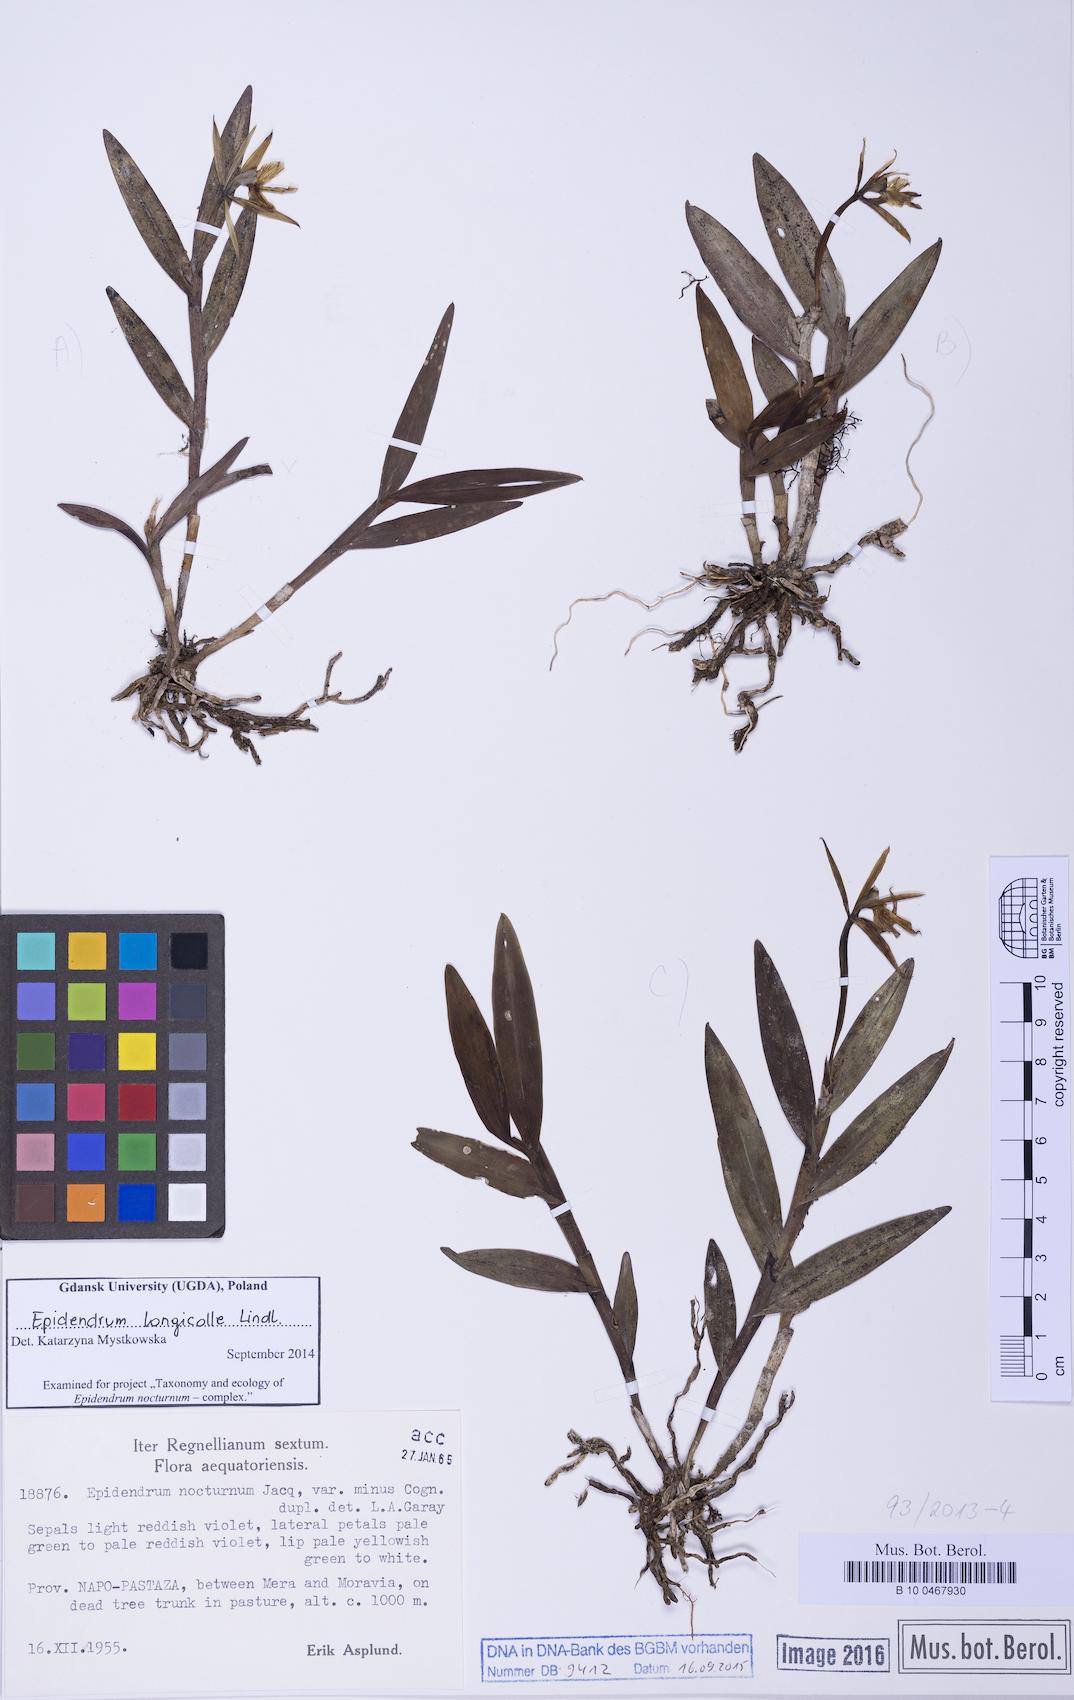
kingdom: Plantae
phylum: Tracheophyta
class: Liliopsida
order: Asparagales
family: Orchidaceae
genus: Epidendrum
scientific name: Epidendrum longicolle
